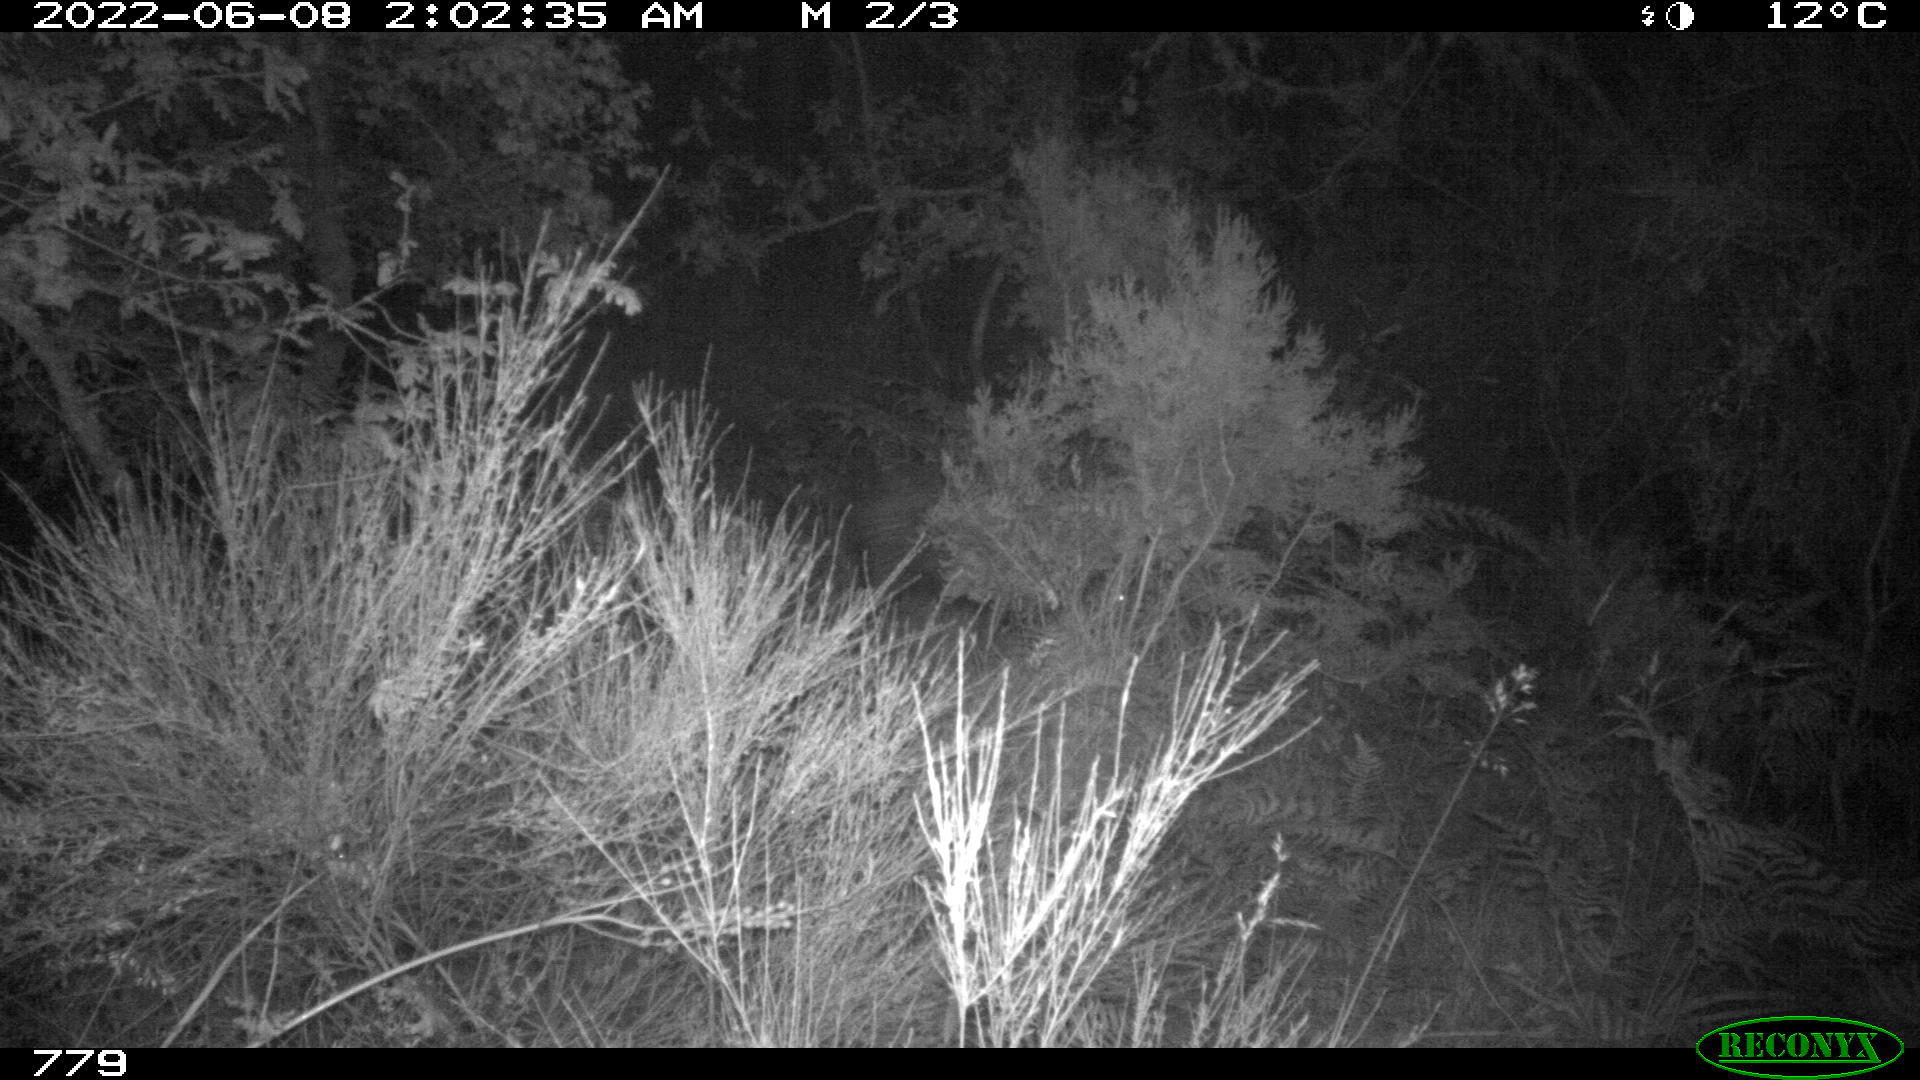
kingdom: Animalia
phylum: Chordata
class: Mammalia
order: Artiodactyla
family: Suidae
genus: Sus
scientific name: Sus scrofa
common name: Wild boar
